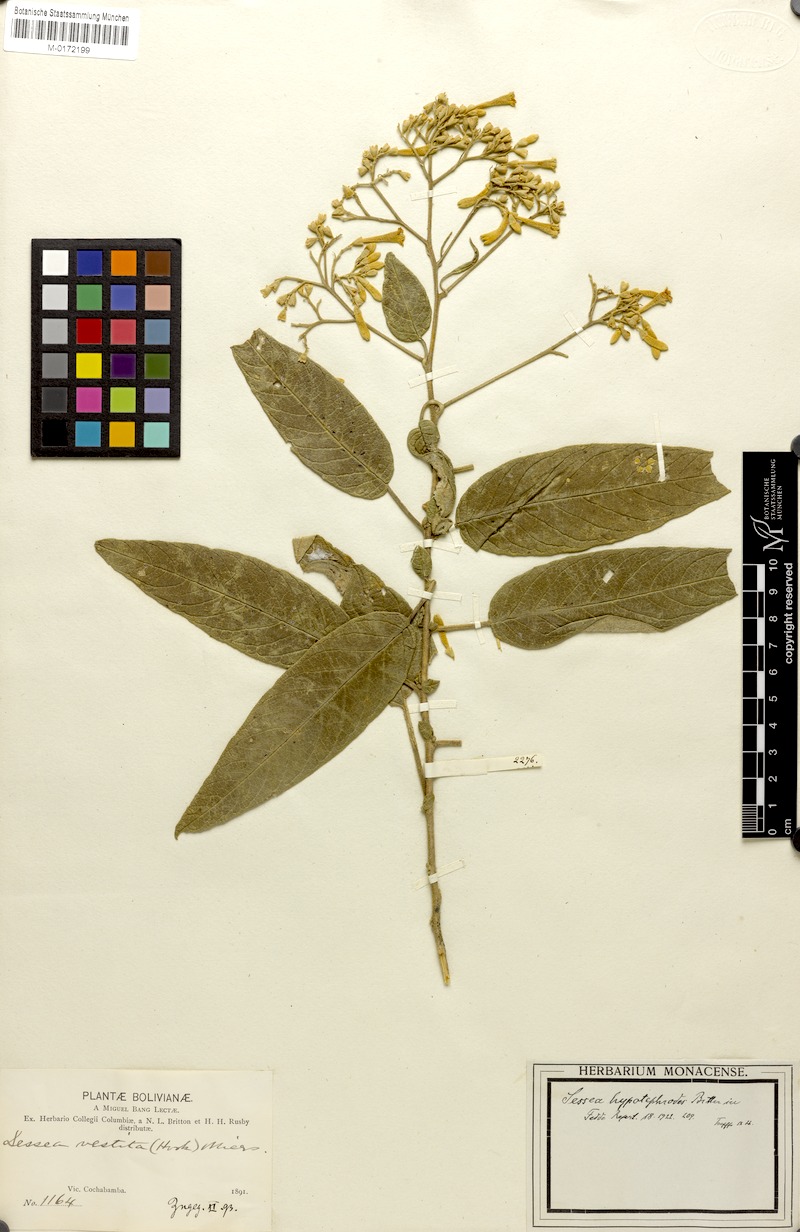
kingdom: Plantae
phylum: Tracheophyta
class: Magnoliopsida
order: Solanales
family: Solanaceae
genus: Sessea
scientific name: Sessea herzogii
